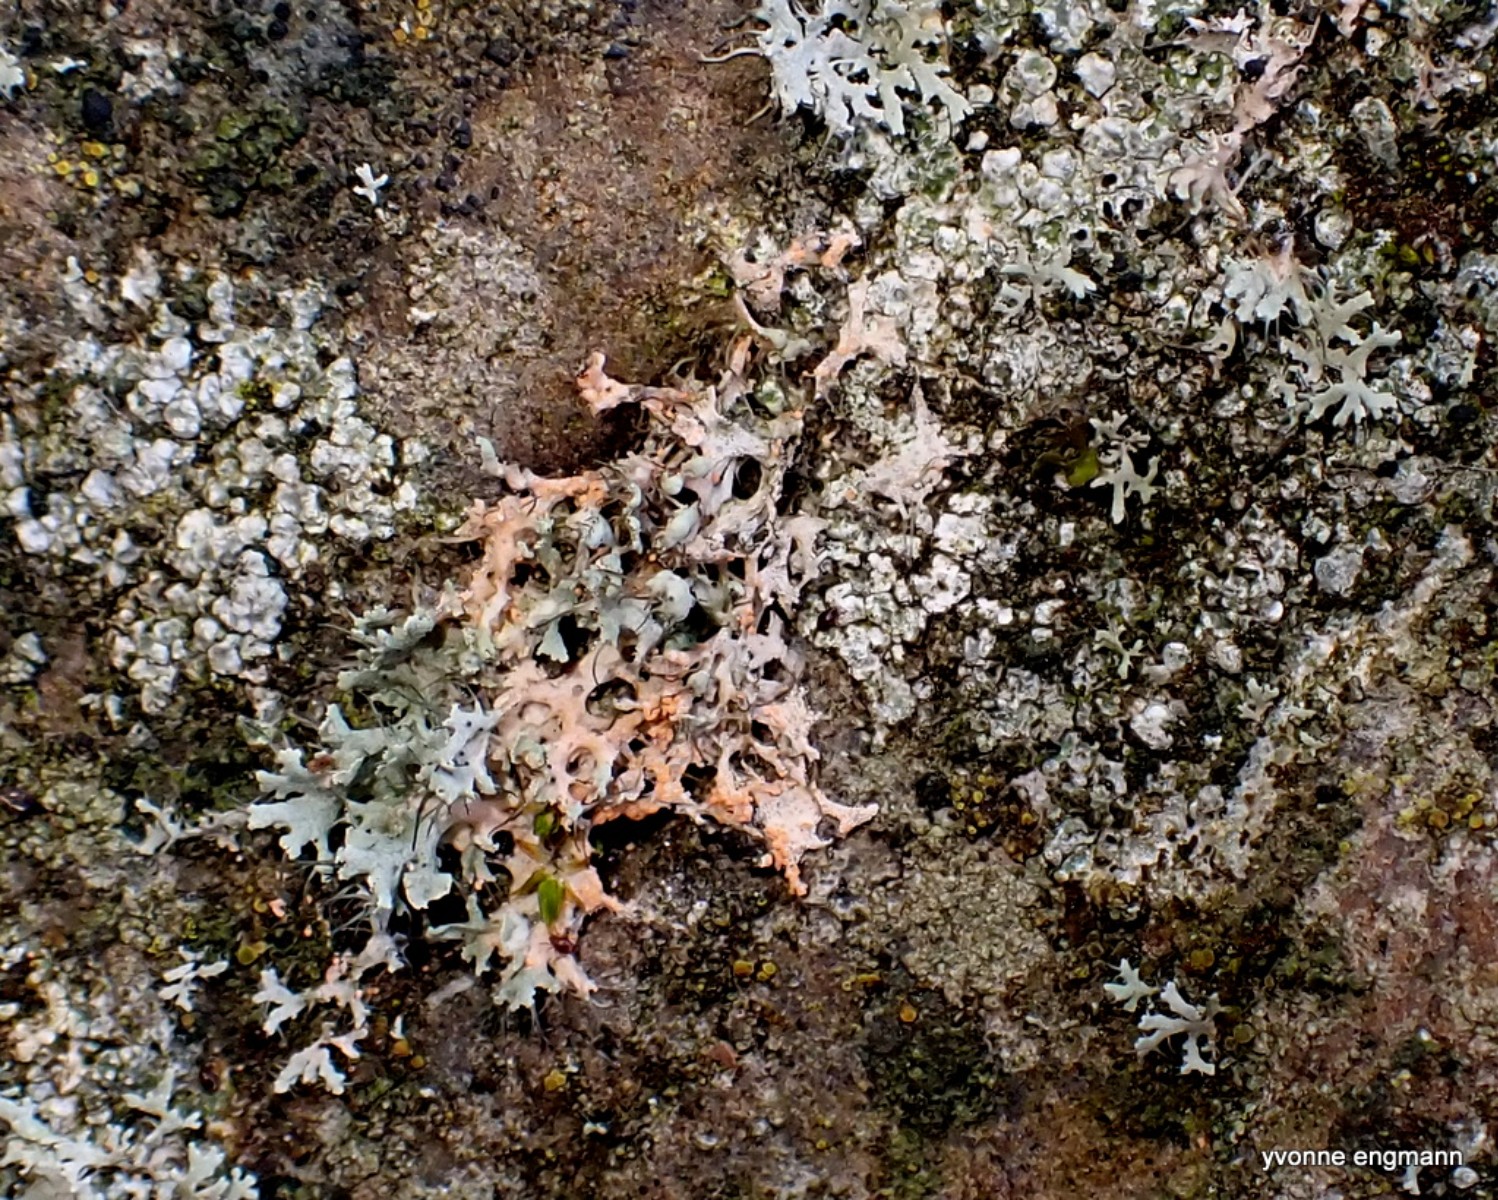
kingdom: Fungi
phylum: Basidiomycota
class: Agaricomycetes
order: Corticiales
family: Corticiaceae
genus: Erythricium
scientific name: Erythricium aurantiacum
